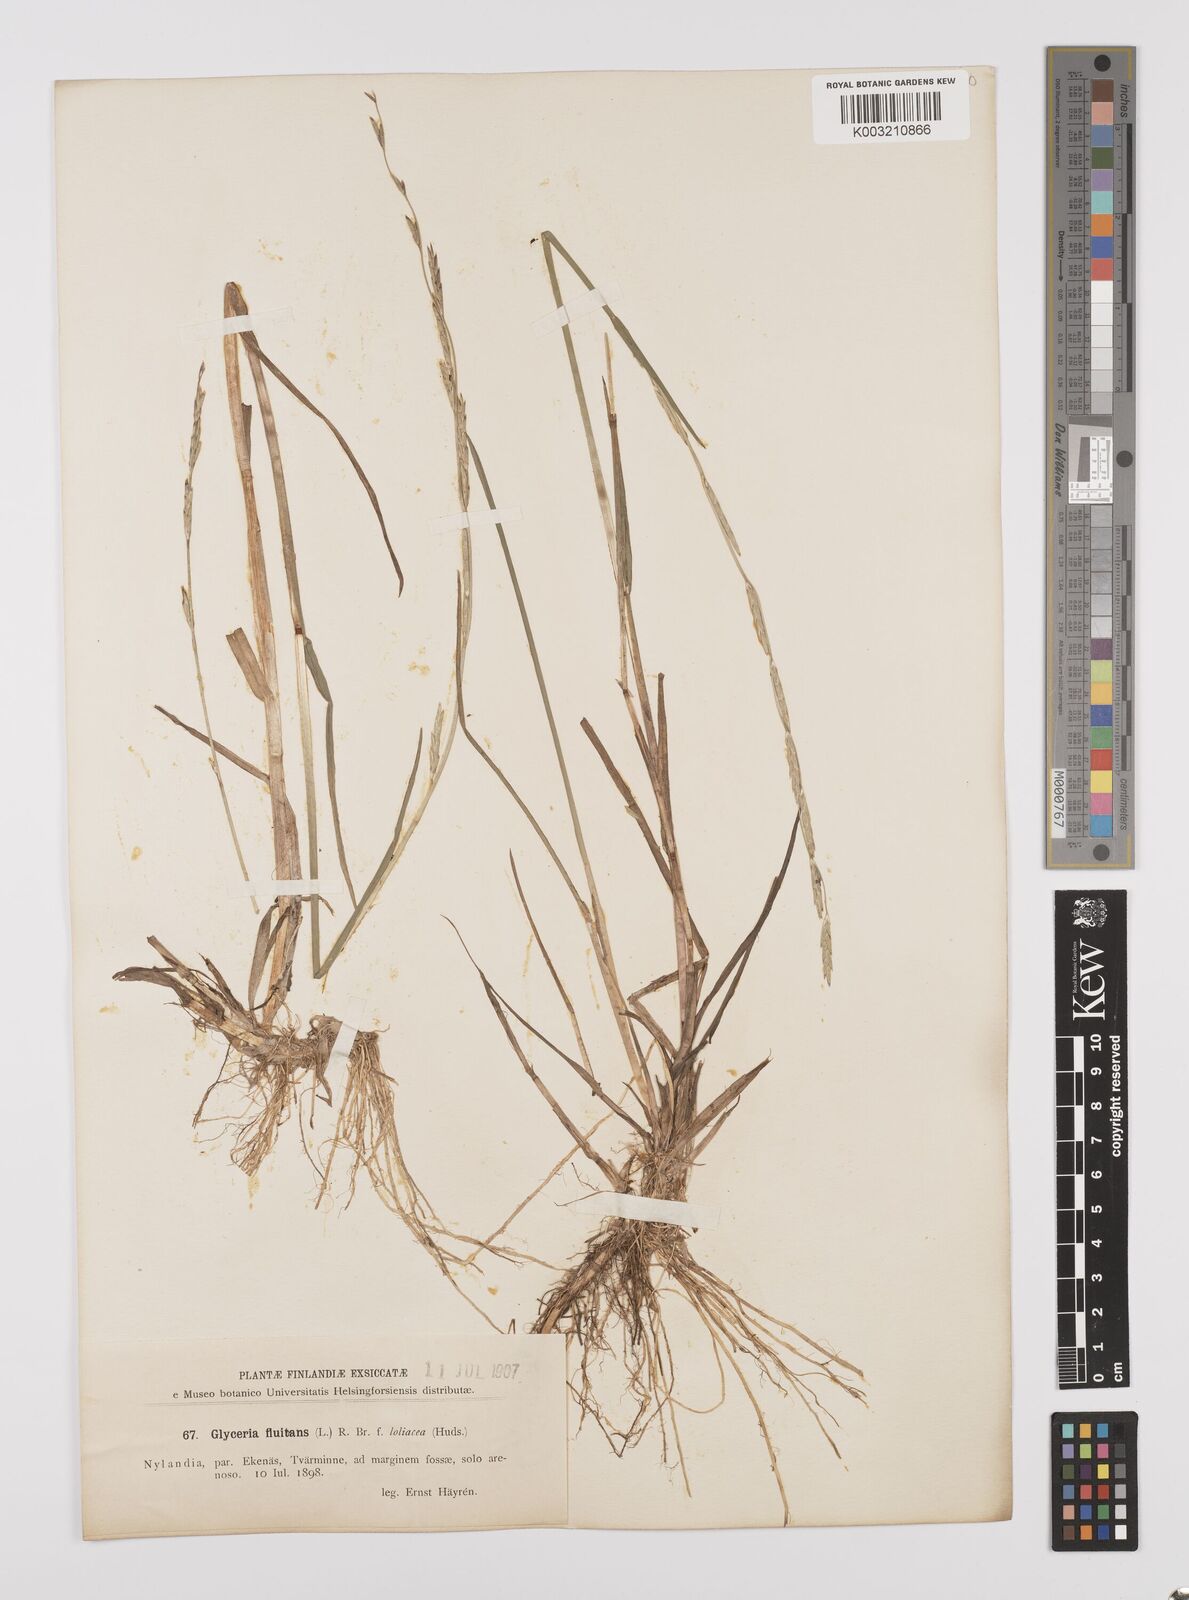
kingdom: Plantae
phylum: Tracheophyta
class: Liliopsida
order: Poales
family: Poaceae
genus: Glyceria
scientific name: Glyceria fluitans
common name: Floating sweet-grass
